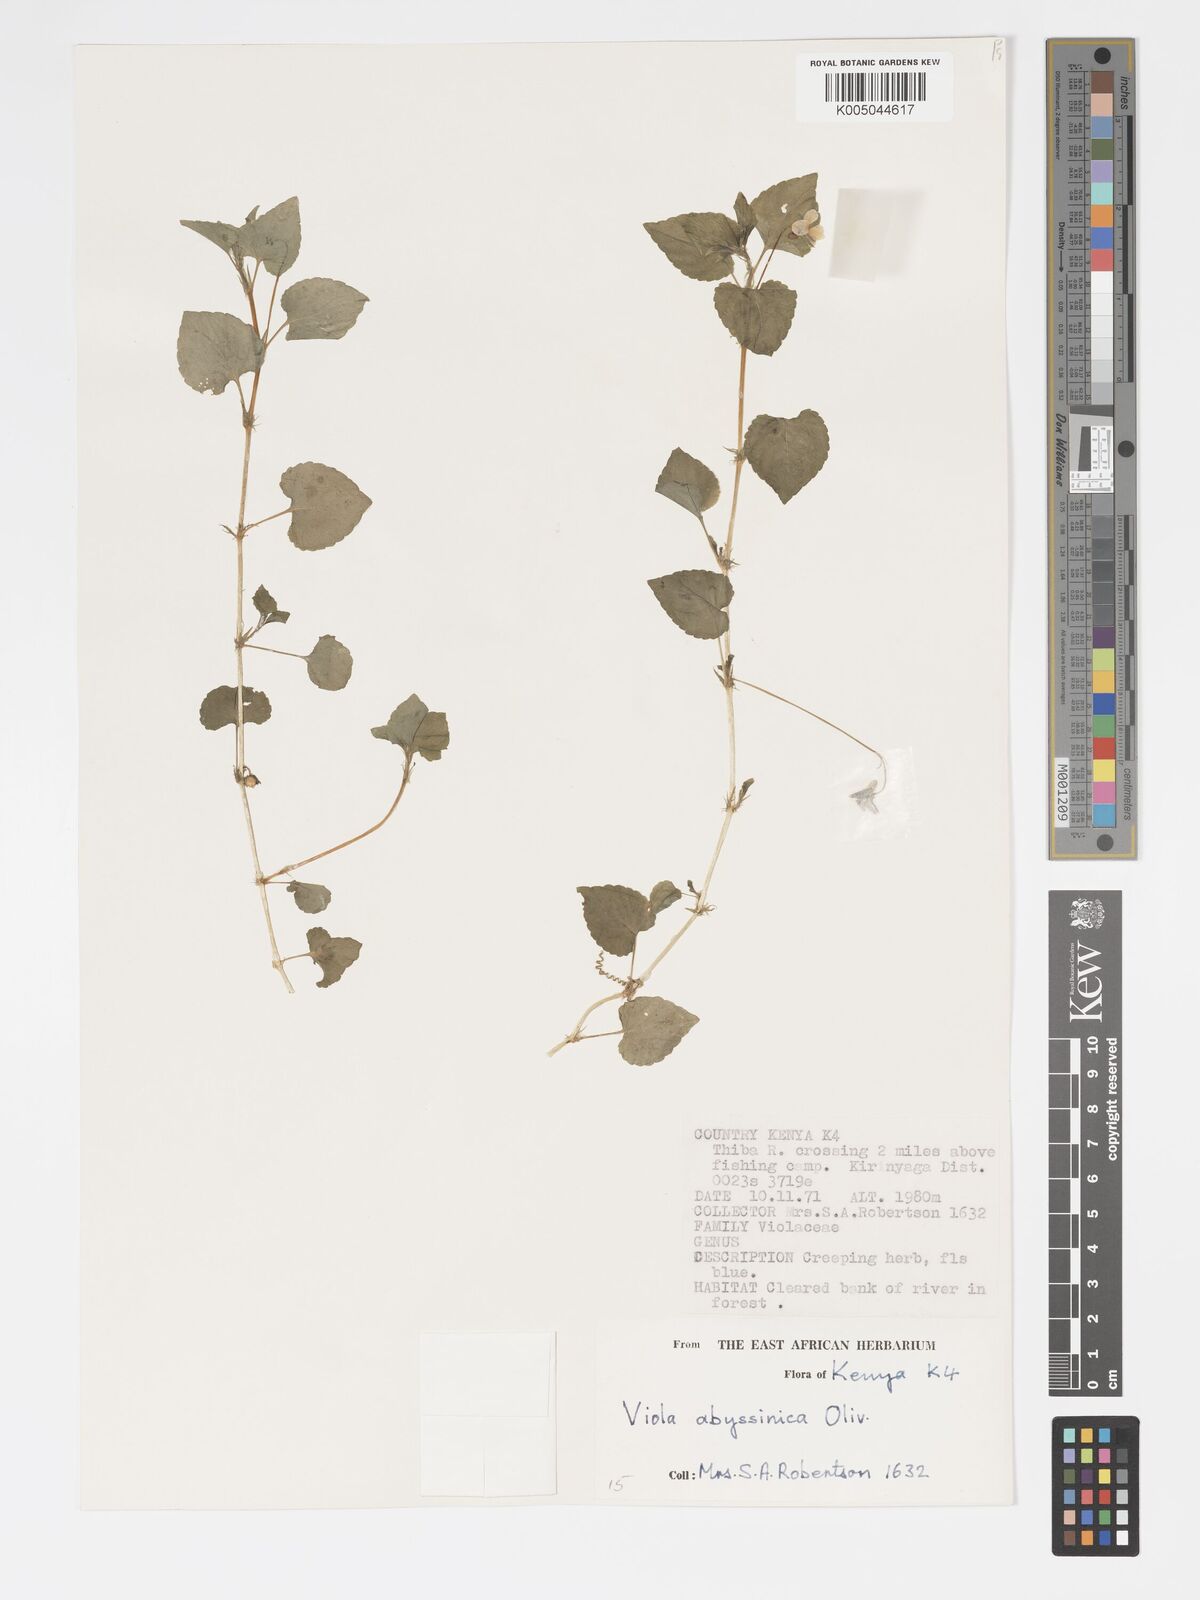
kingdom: Plantae
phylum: Tracheophyta
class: Magnoliopsida
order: Malpighiales
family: Violaceae
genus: Viola
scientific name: Viola abyssinica
